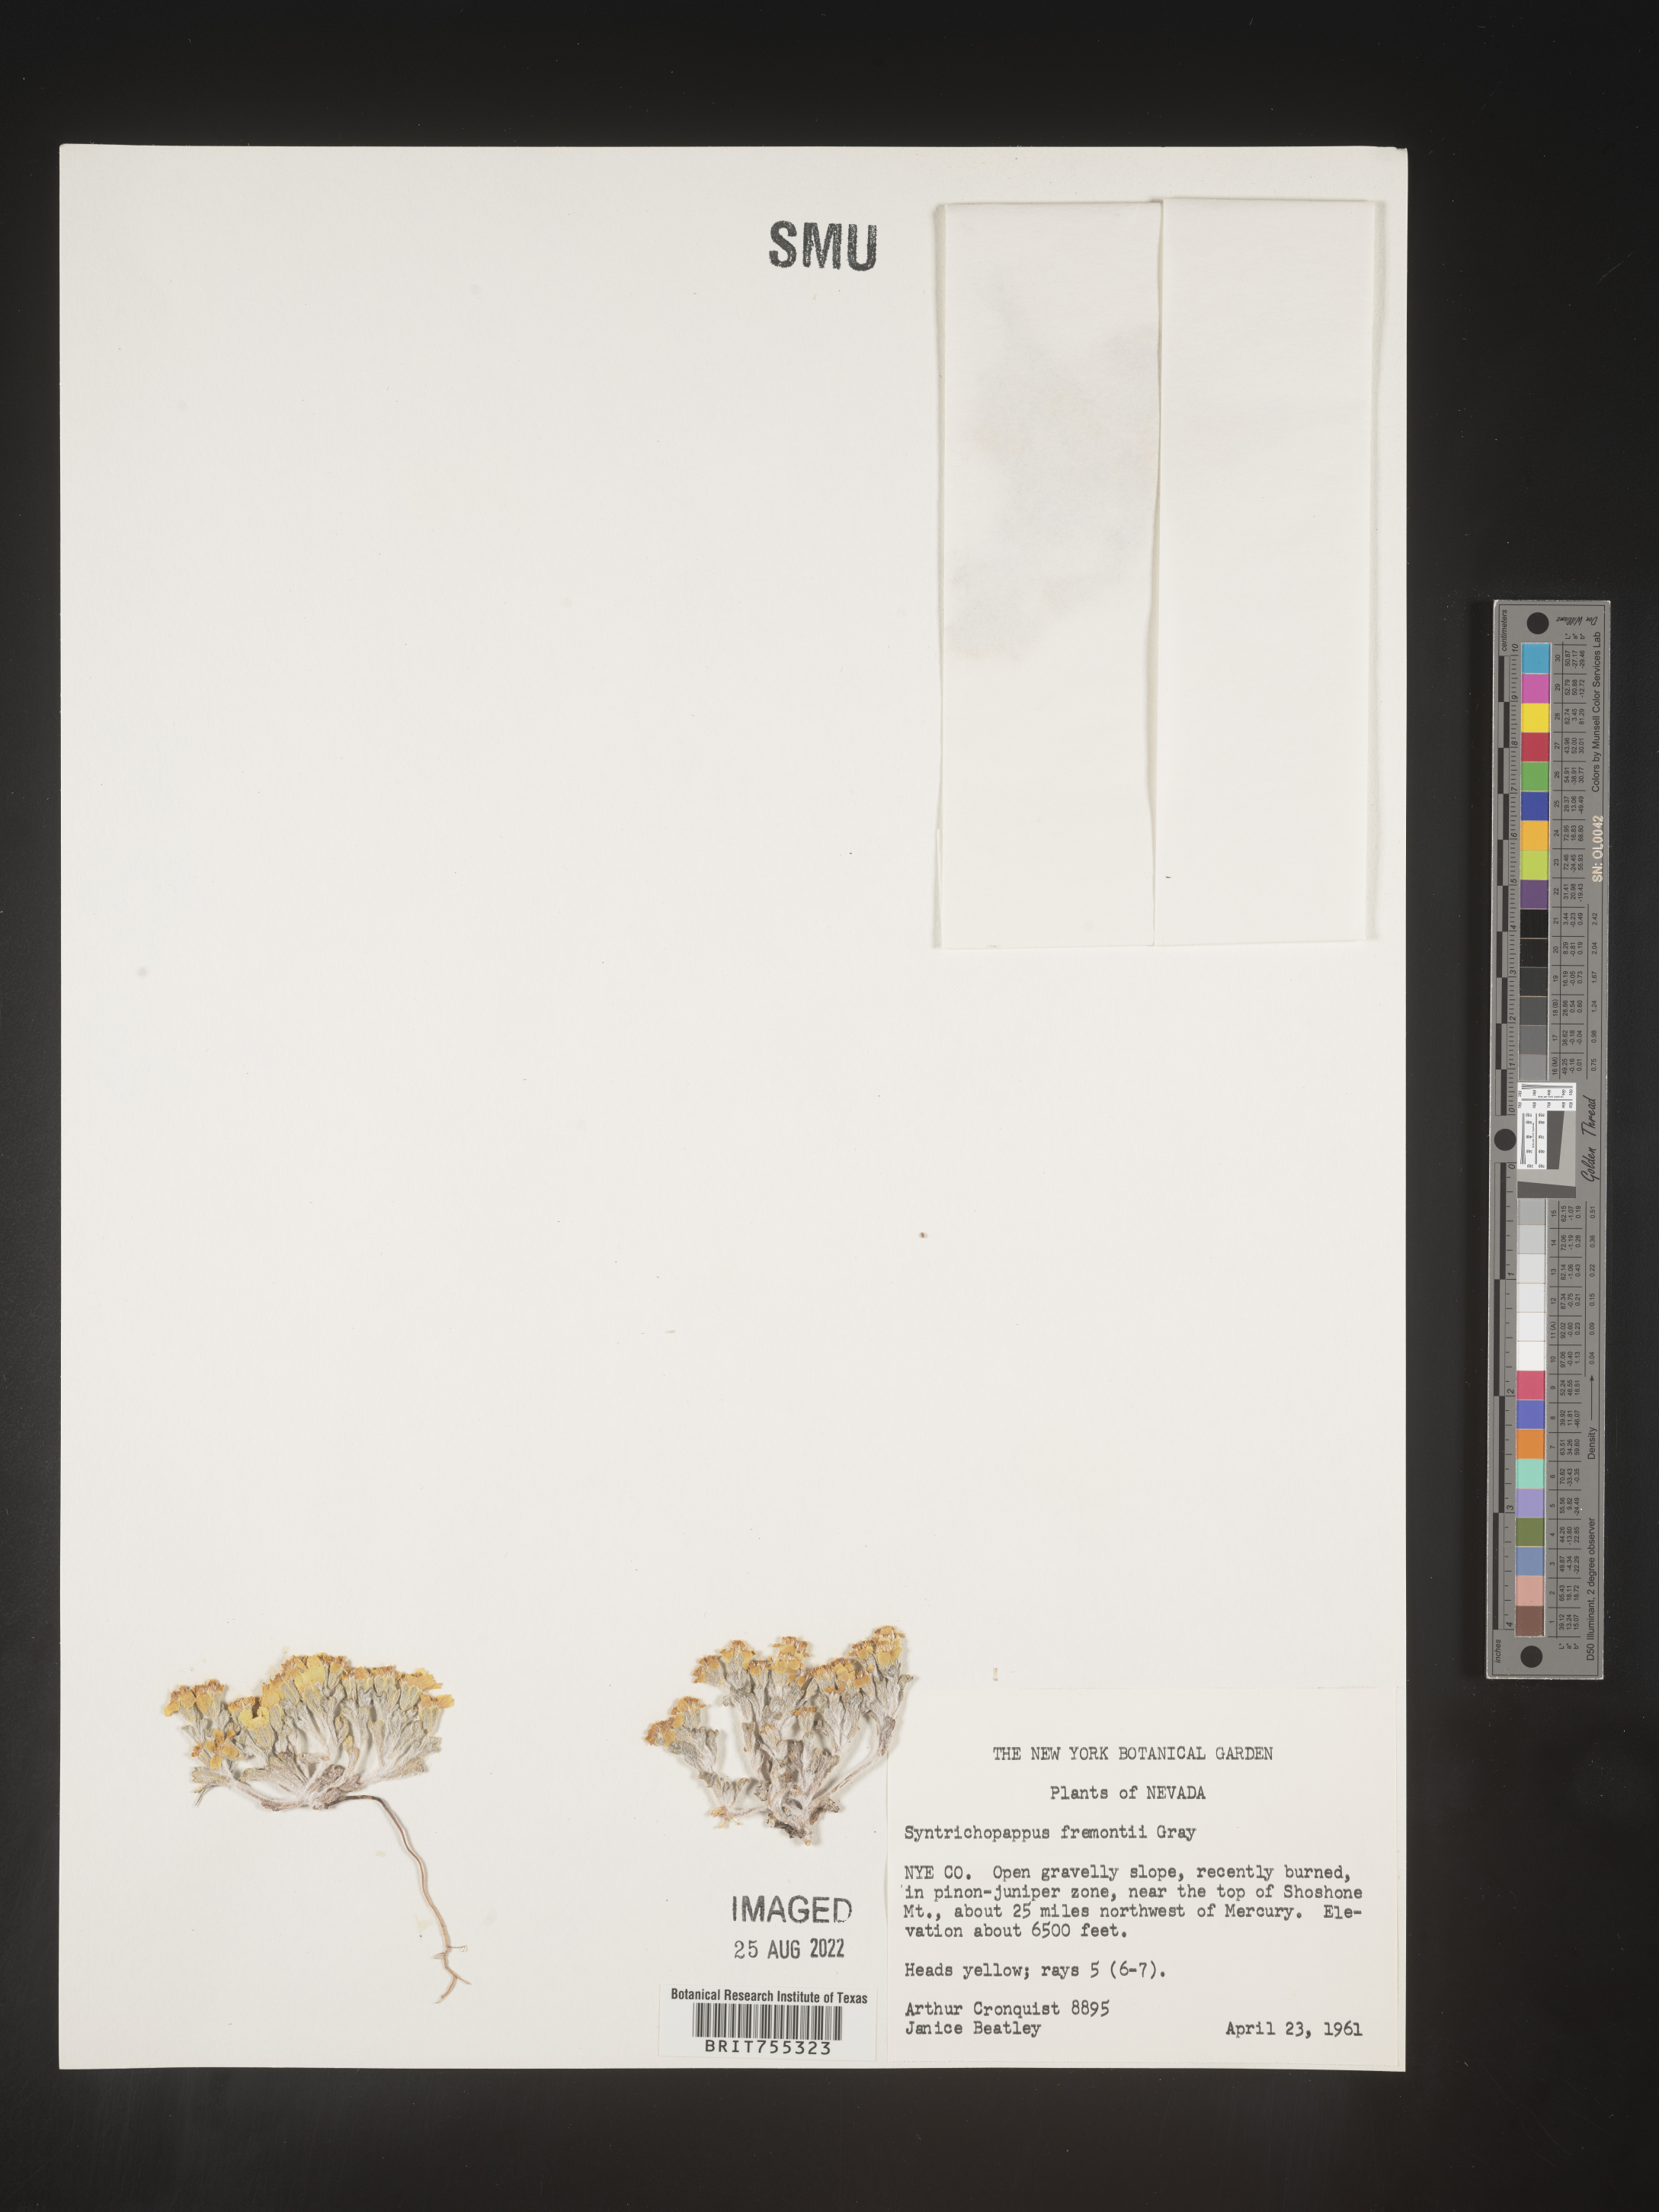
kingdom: Plantae
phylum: Tracheophyta
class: Magnoliopsida
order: Asterales
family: Asteraceae
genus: Syntrichopappus
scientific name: Syntrichopappus
